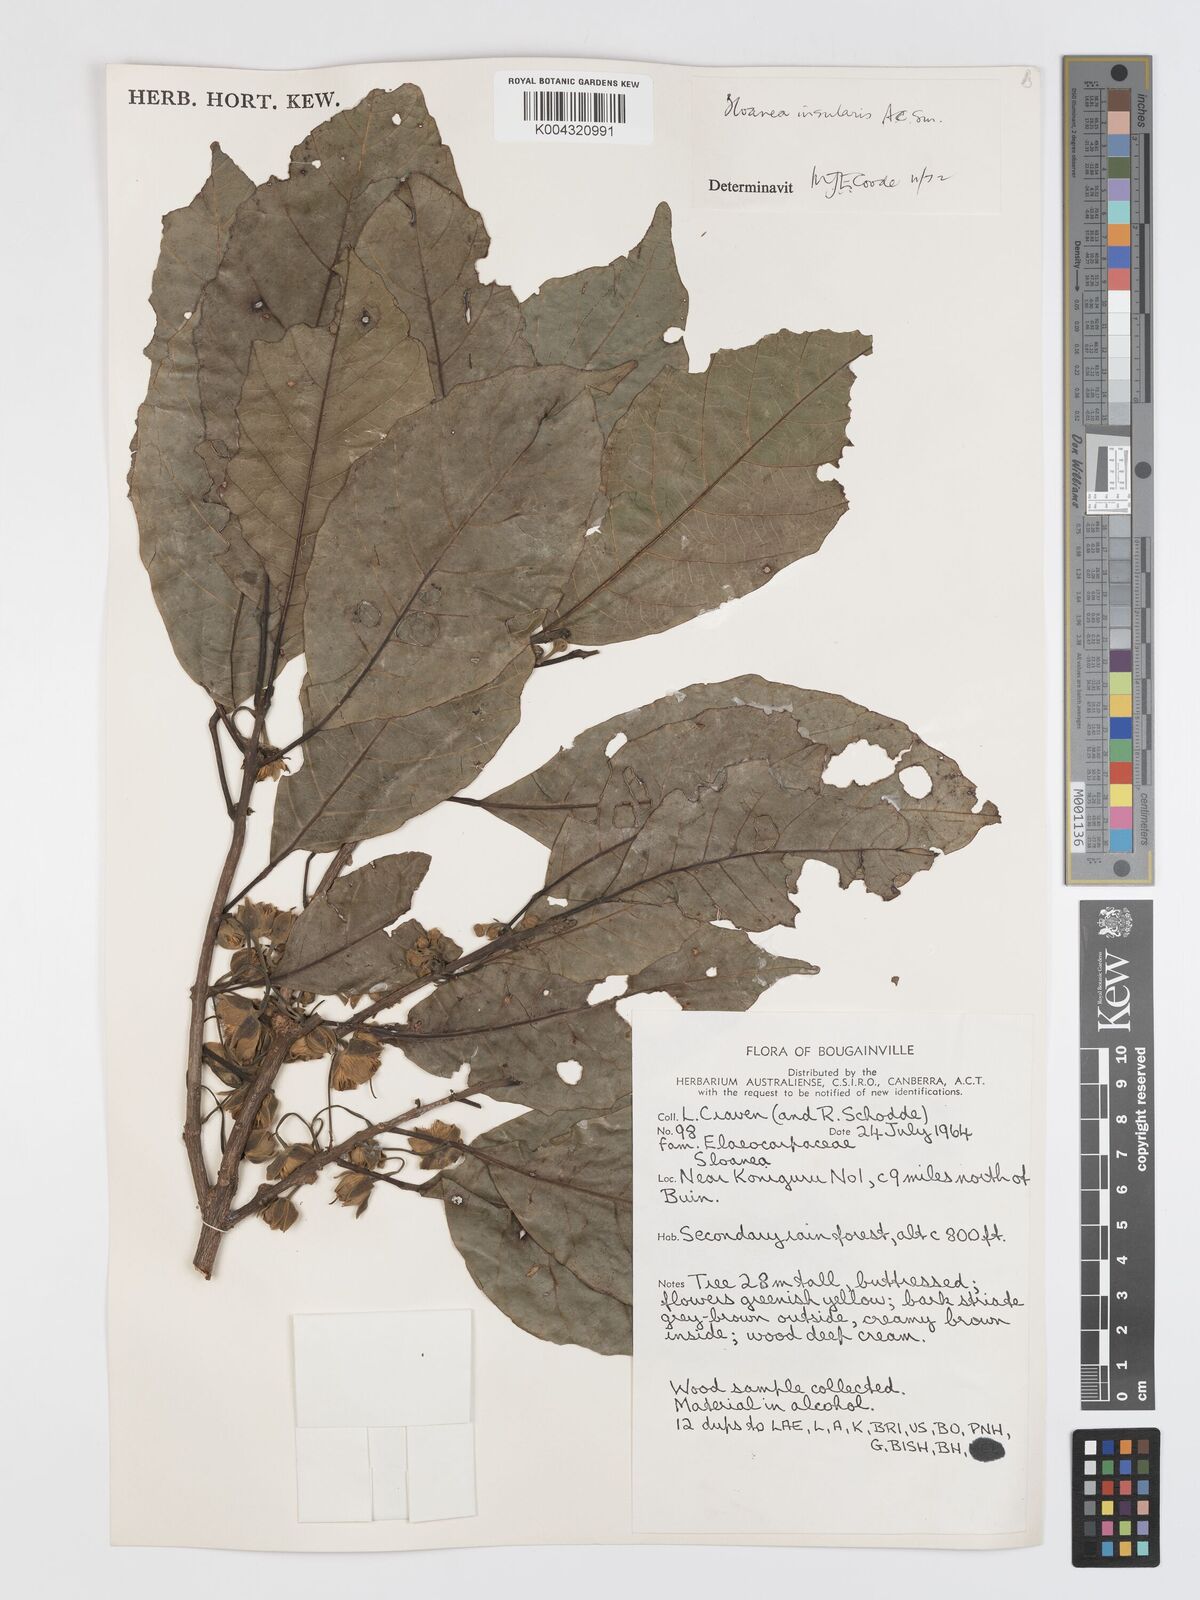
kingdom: Plantae
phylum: Tracheophyta
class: Magnoliopsida
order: Oxalidales
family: Elaeocarpaceae
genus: Sloanea
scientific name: Sloanea insularis
